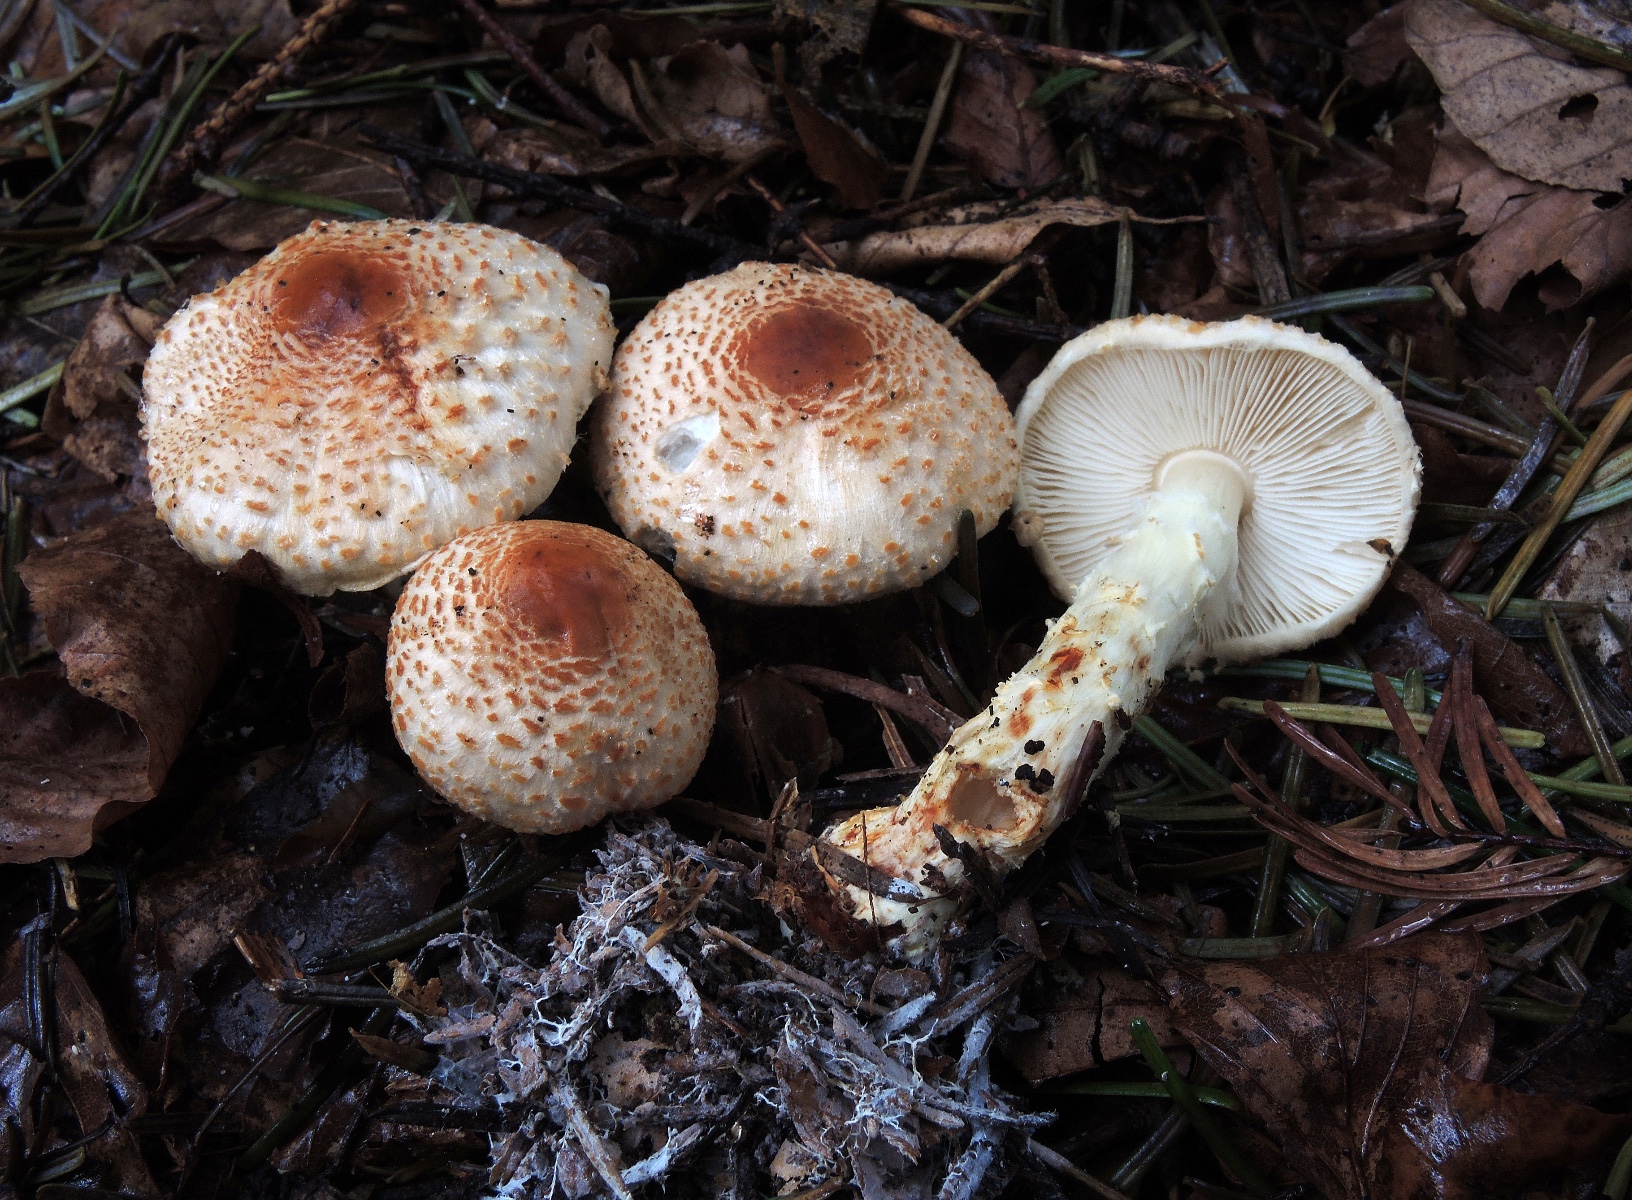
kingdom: Fungi
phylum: Basidiomycota
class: Agaricomycetes
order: Agaricales
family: Agaricaceae
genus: Lepiota
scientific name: Lepiota ochraceofulva
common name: sødtduftende parasolhat
